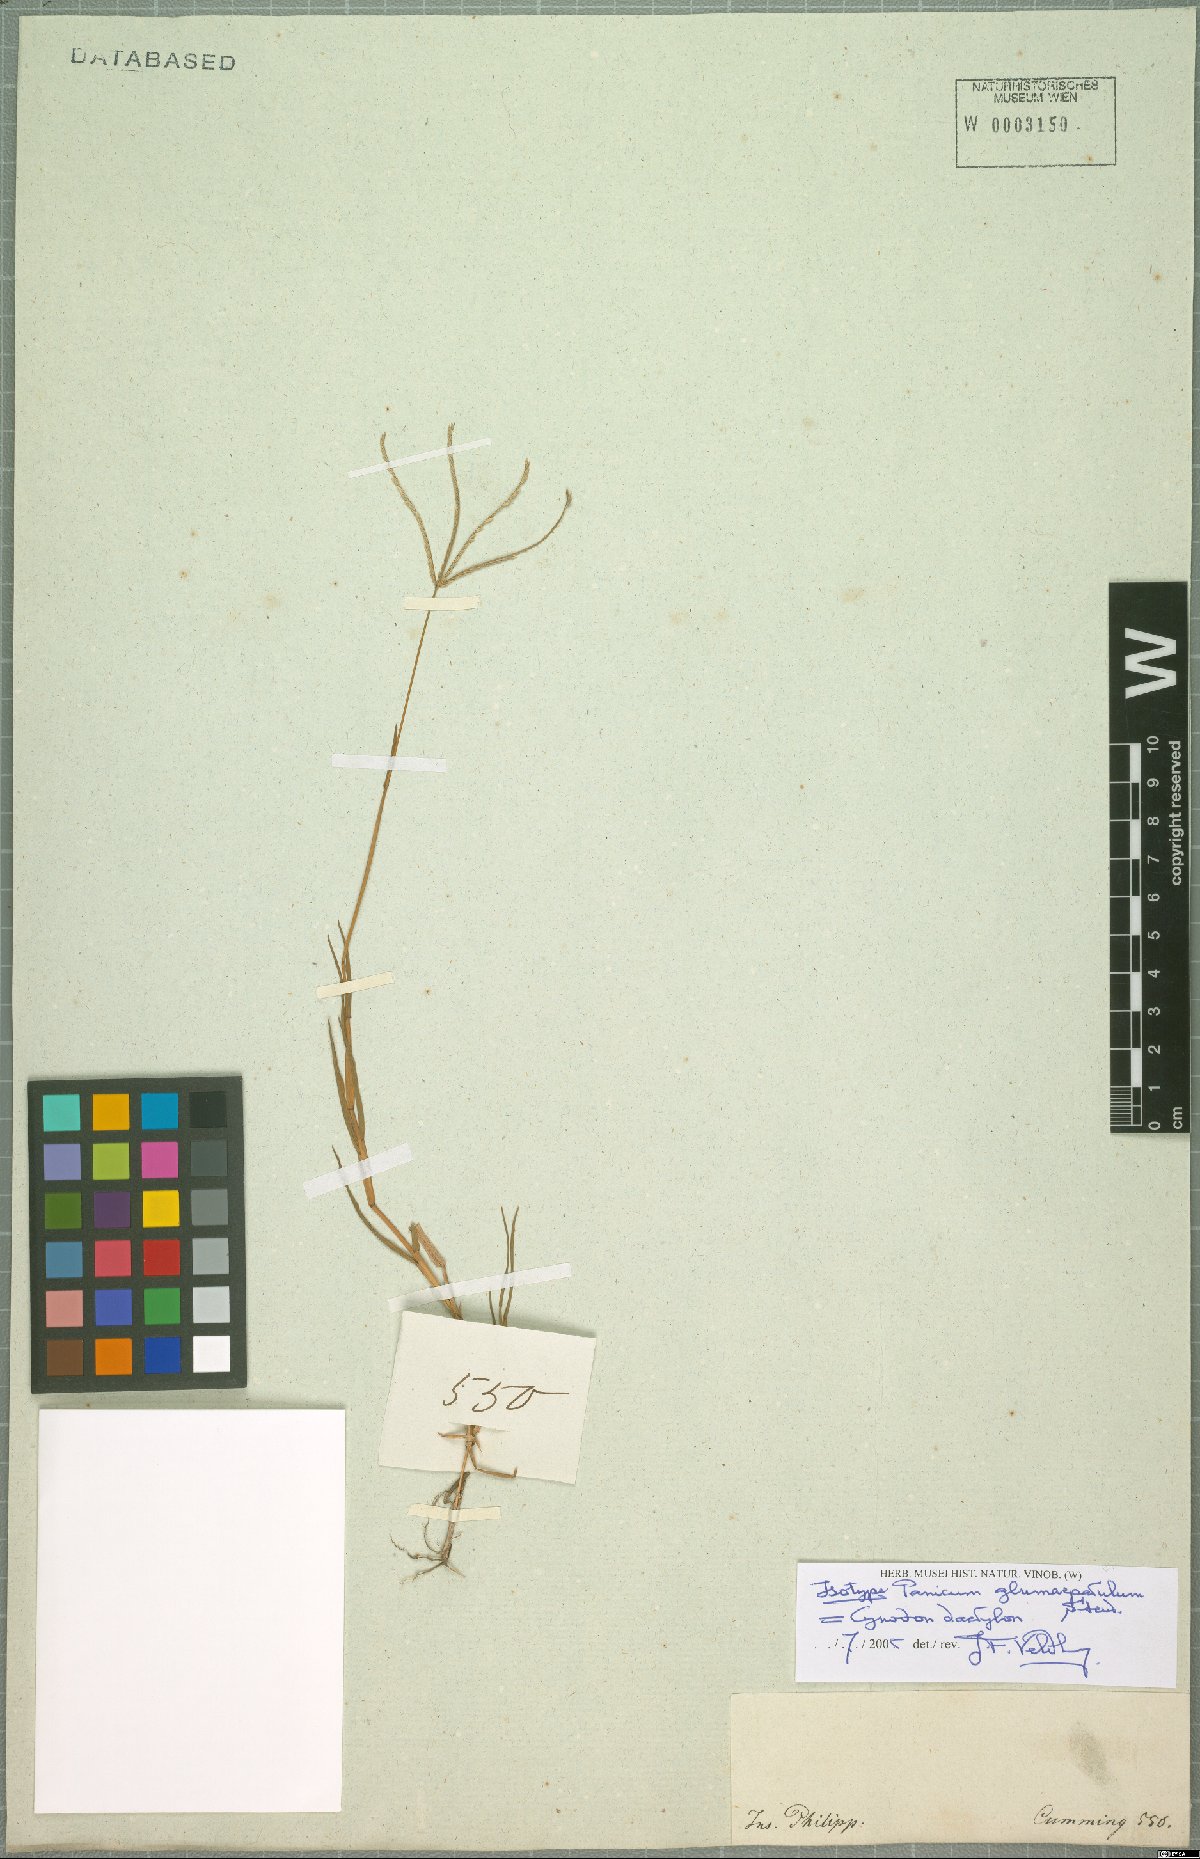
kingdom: Plantae
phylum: Tracheophyta
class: Liliopsida
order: Poales
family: Poaceae
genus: Cynodon
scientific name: Cynodon dactylon
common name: Bermuda grass
